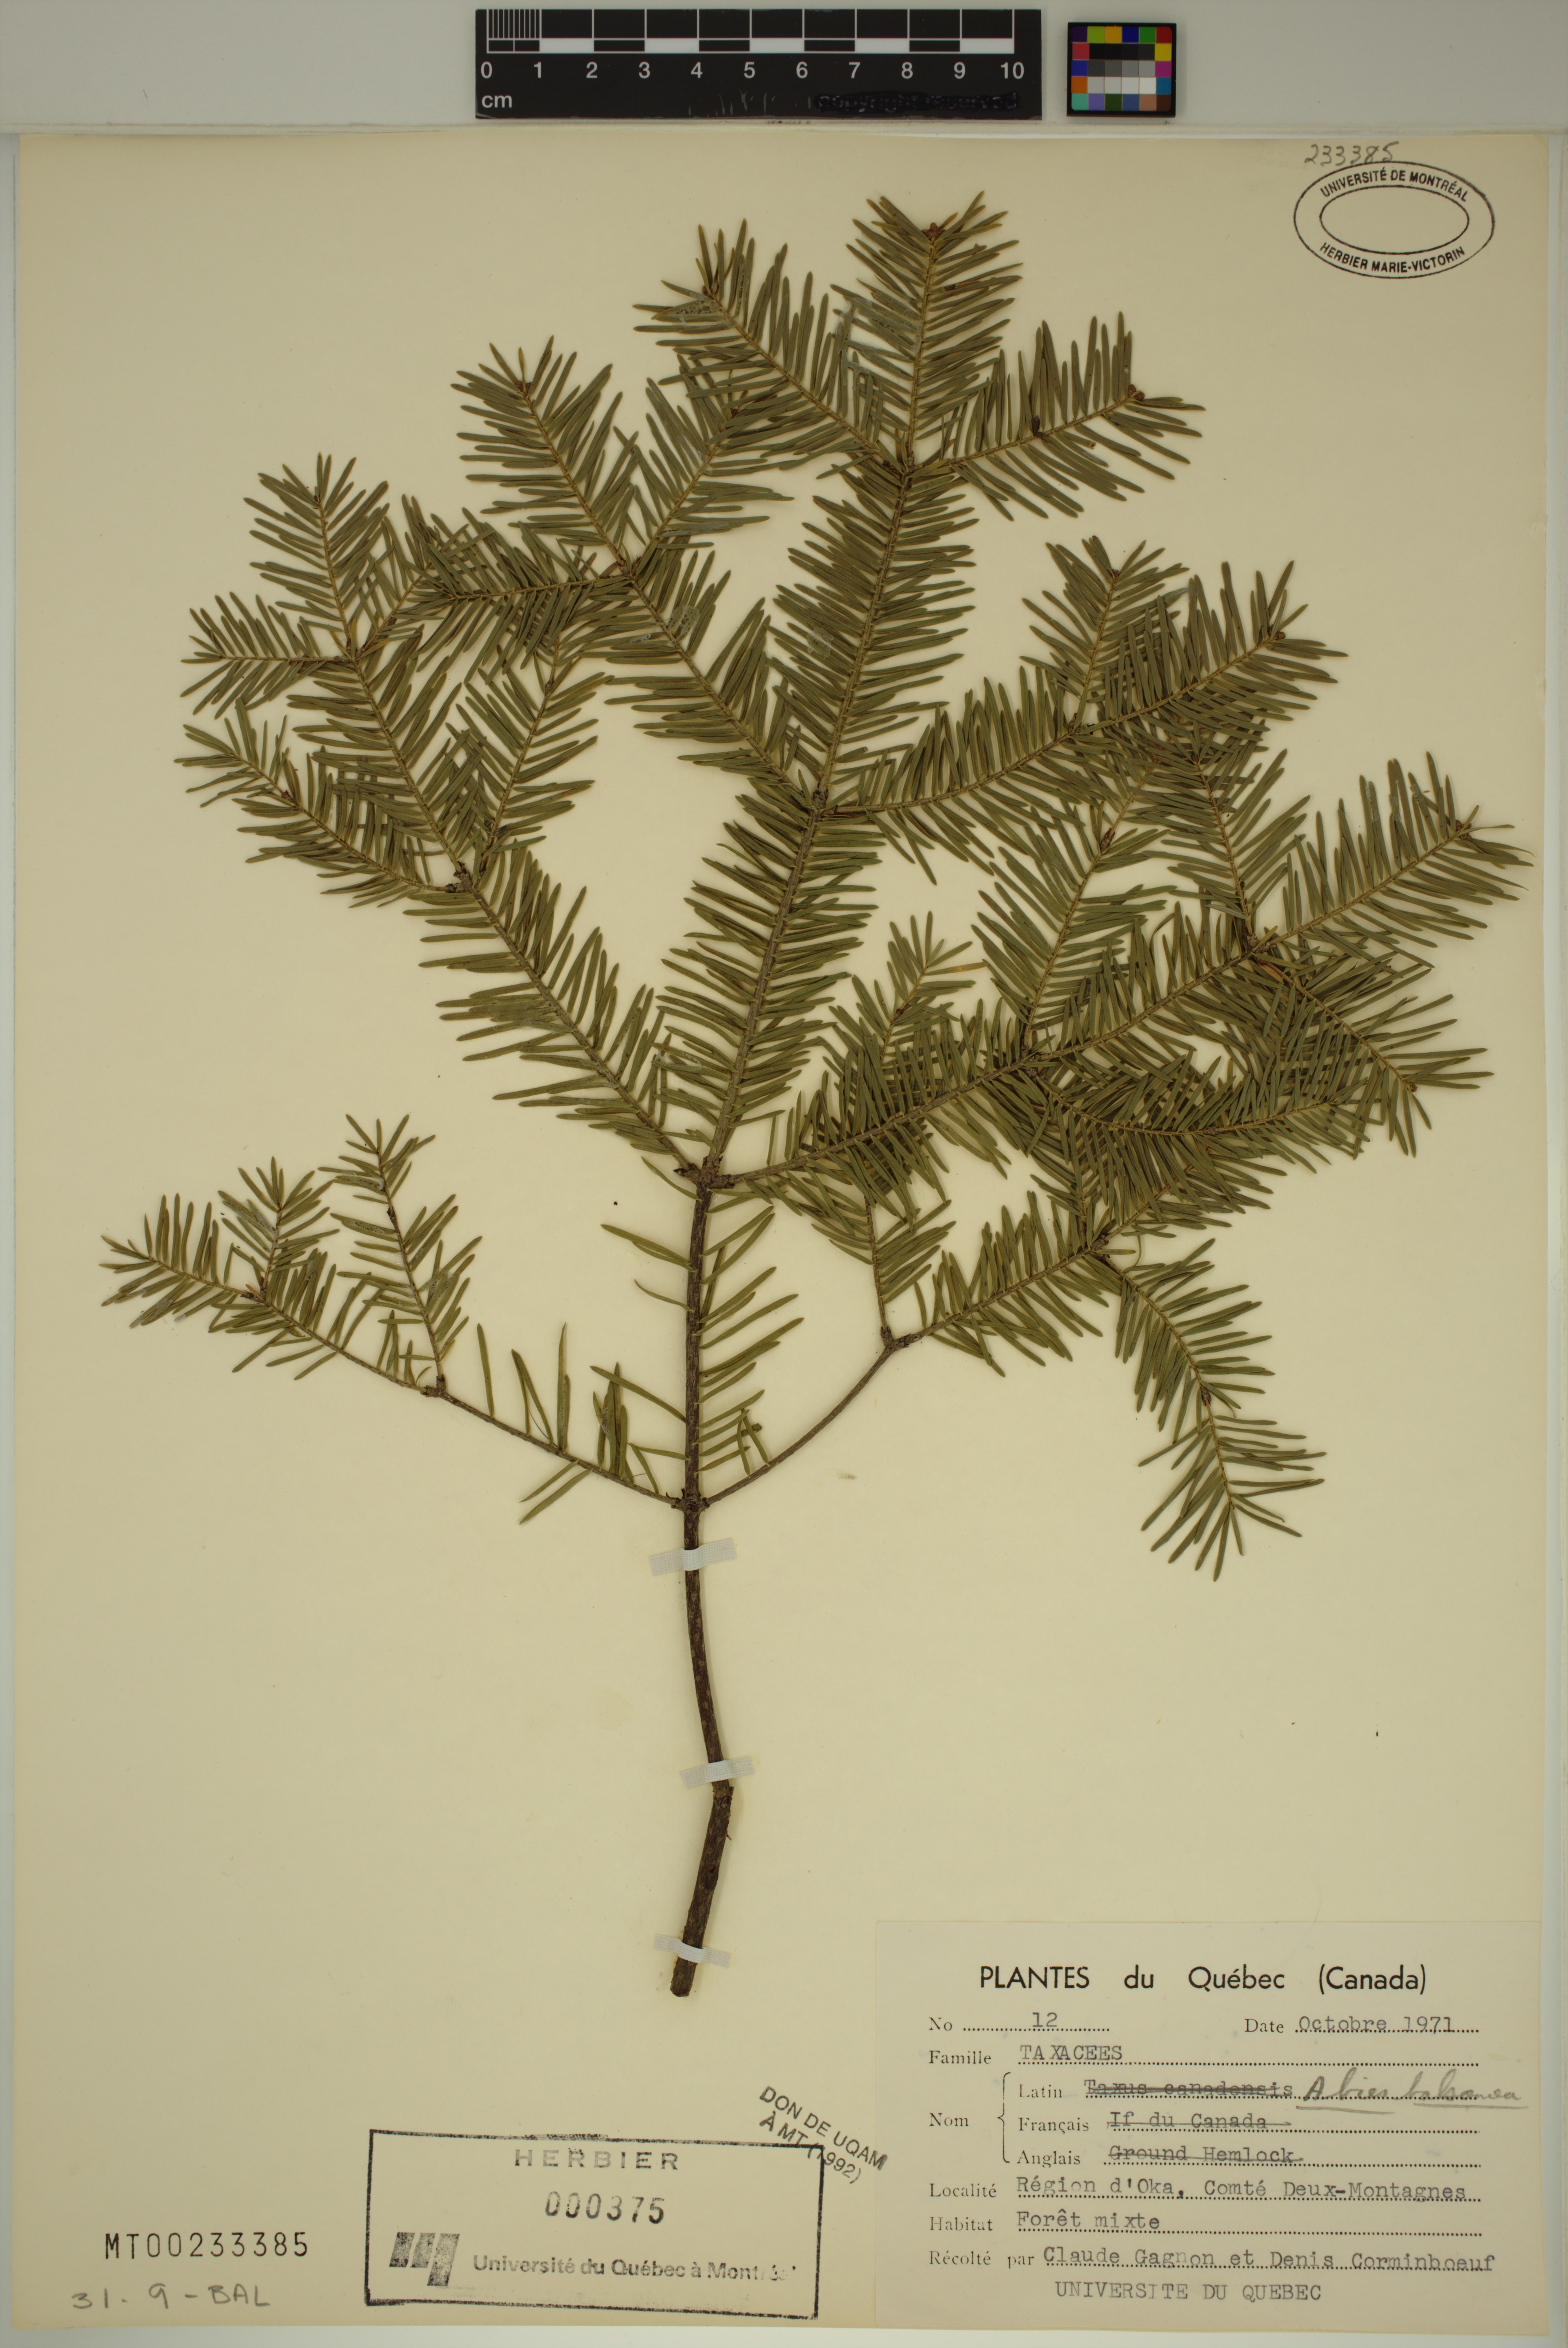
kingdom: Plantae
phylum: Tracheophyta
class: Pinopsida
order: Pinales
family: Pinaceae
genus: Abies
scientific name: Abies balsamea
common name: Balsam fir
